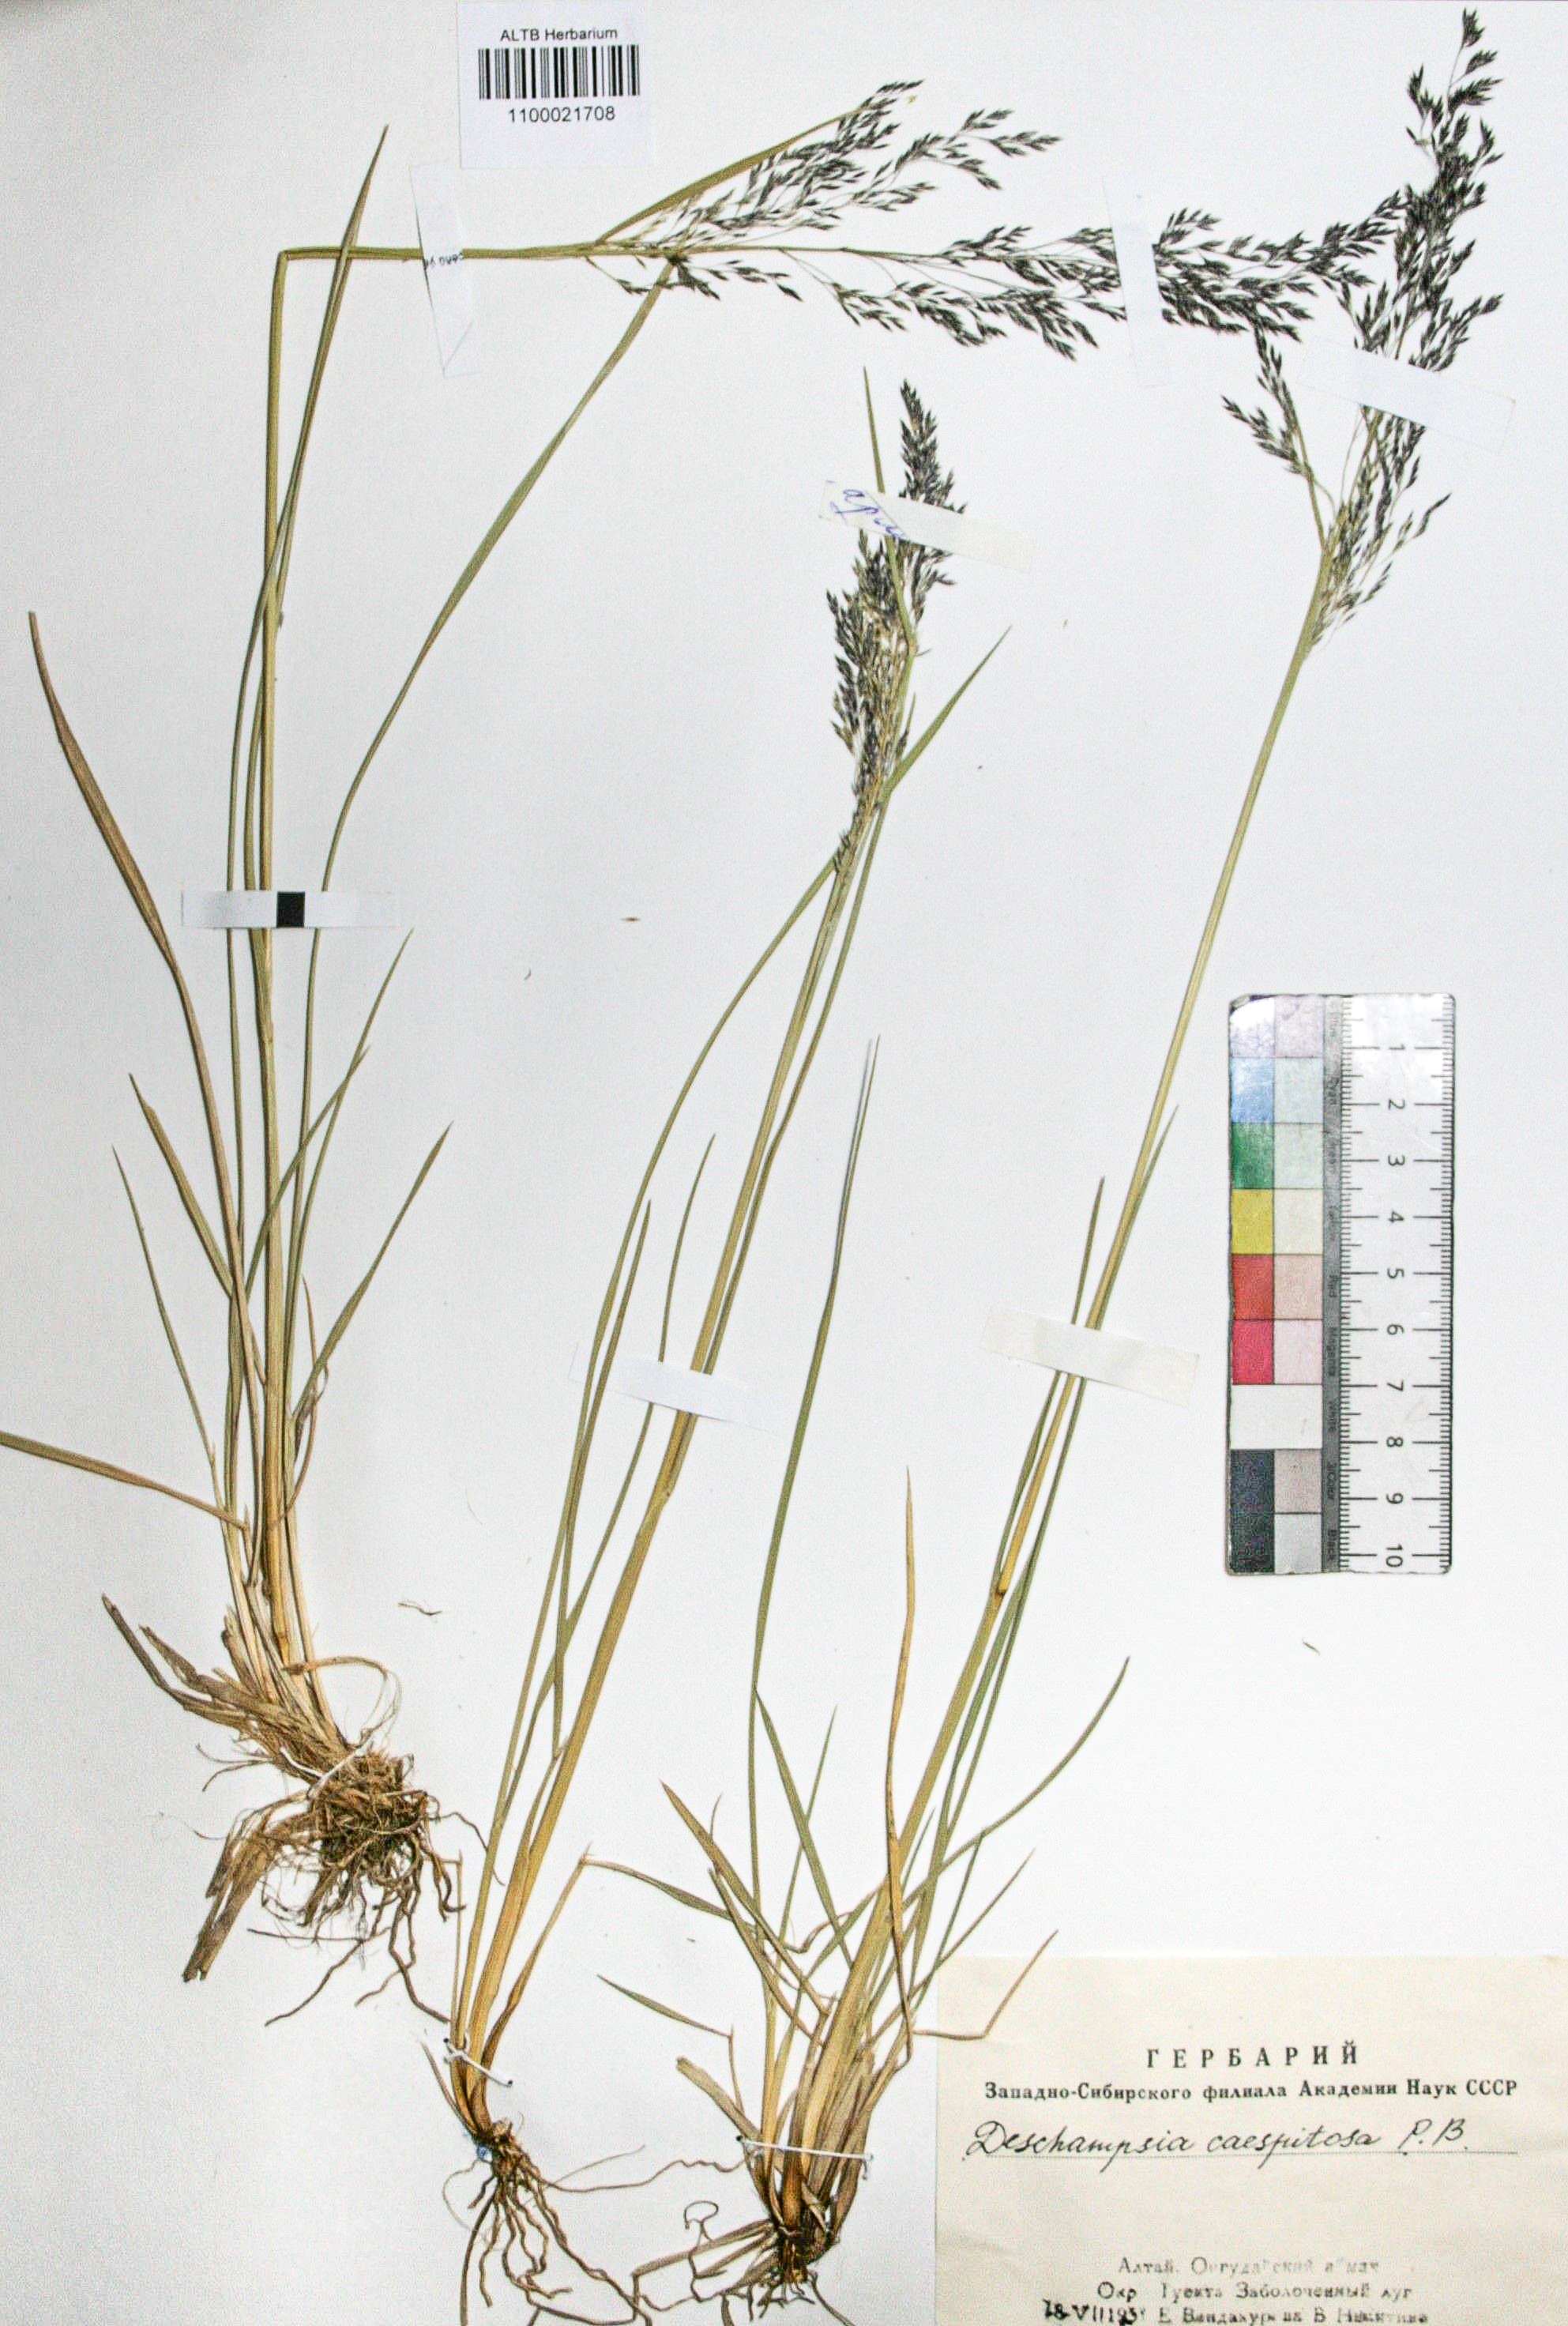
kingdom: Plantae
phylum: Tracheophyta
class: Liliopsida
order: Poales
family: Poaceae
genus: Deschampsia
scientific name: Deschampsia cespitosa
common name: Tufted hair-grass
